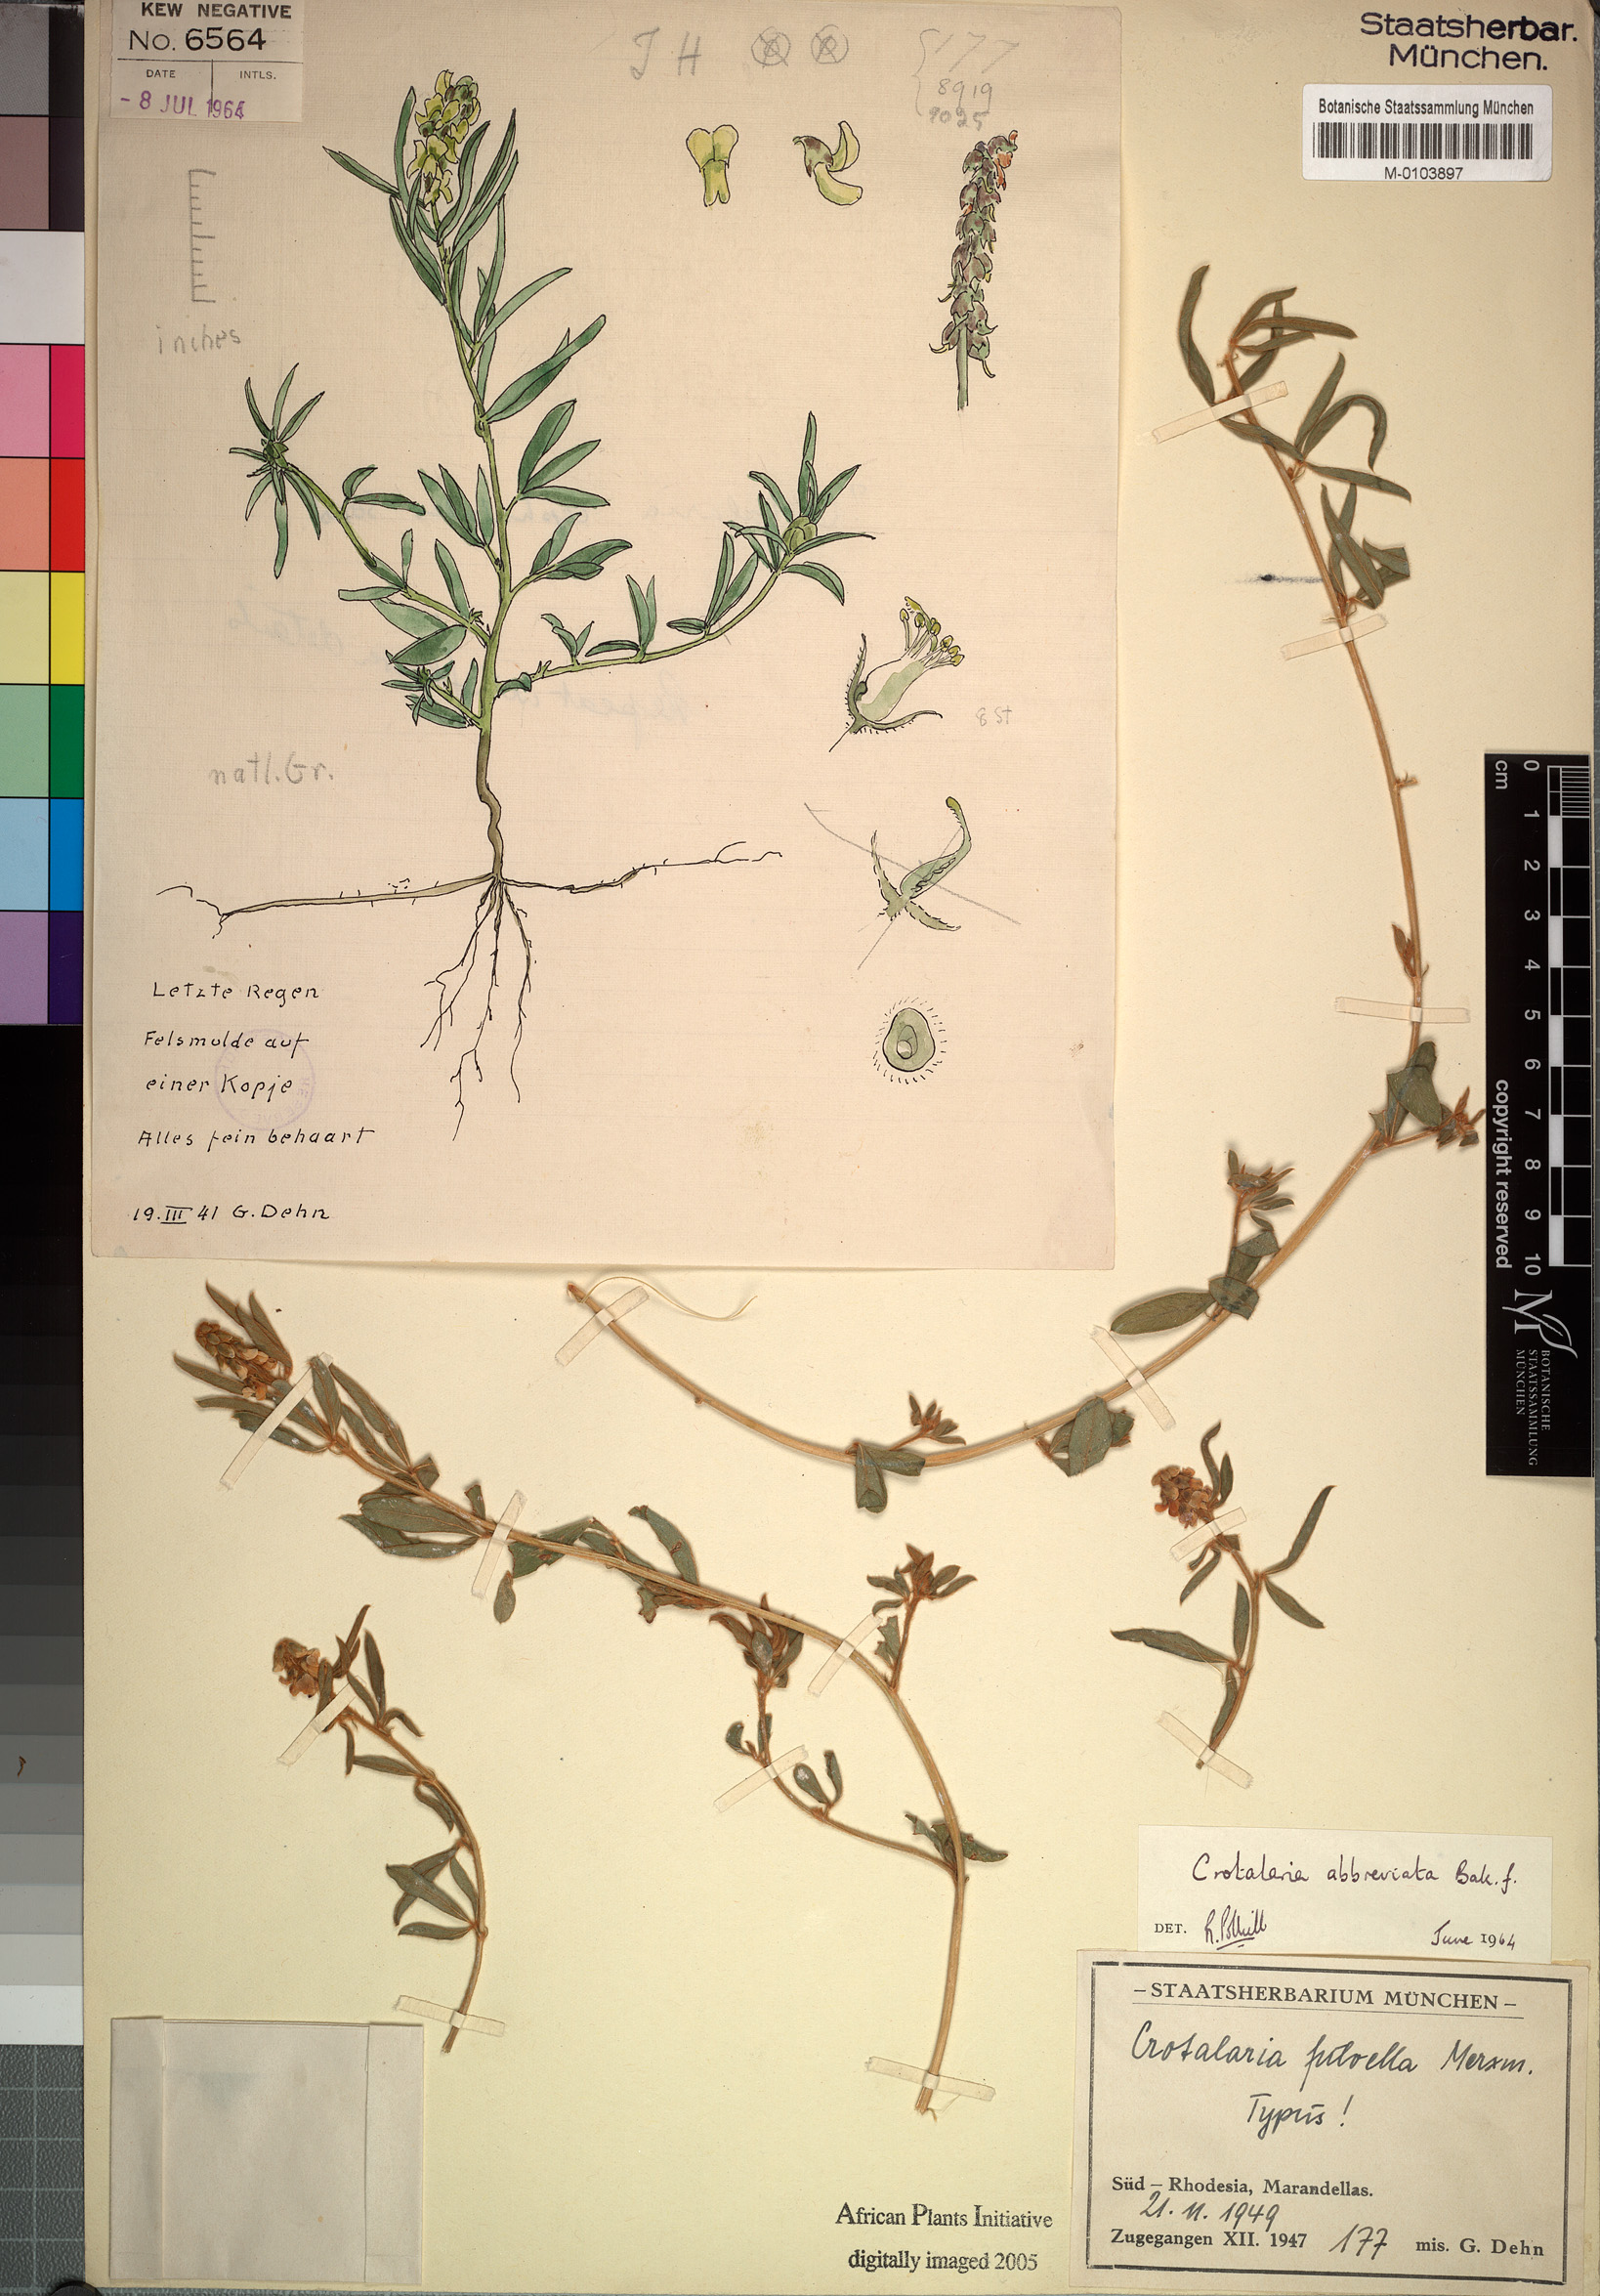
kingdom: Plantae
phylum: Tracheophyta
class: Magnoliopsida
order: Fabales
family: Fabaceae
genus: Crotalaria
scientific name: Crotalaria abbreviata
